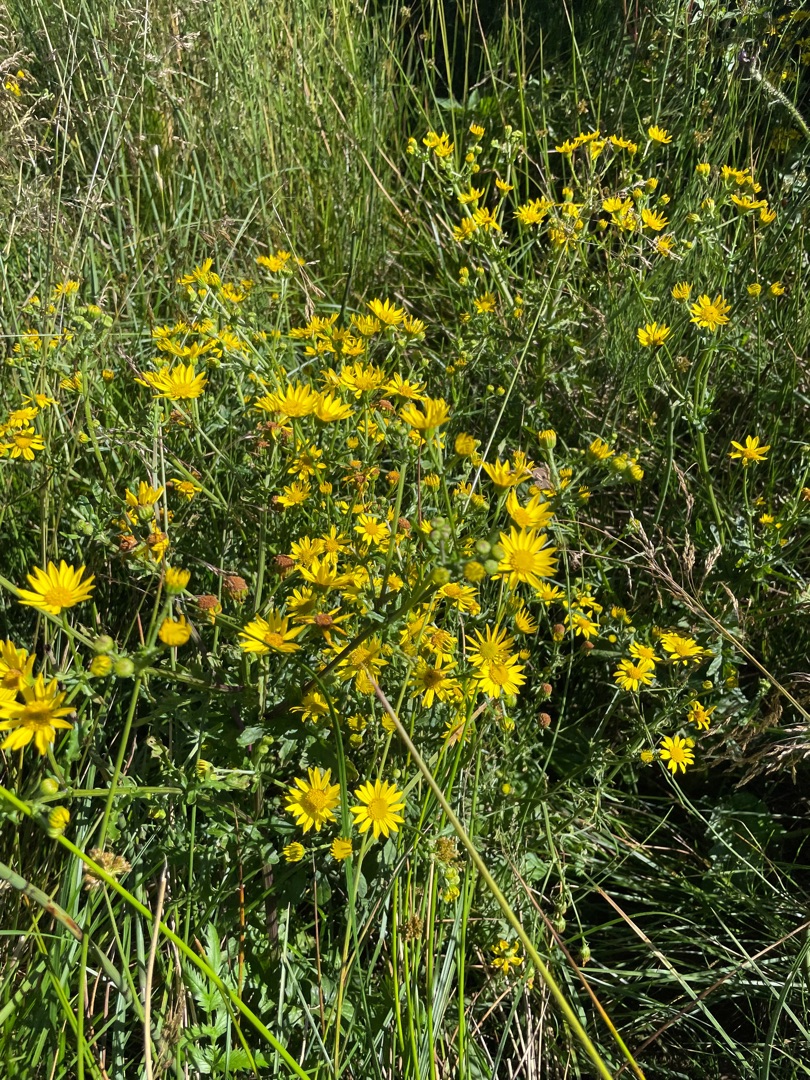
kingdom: Plantae
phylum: Tracheophyta
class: Magnoliopsida
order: Asterales
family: Asteraceae
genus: Jacobaea
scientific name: Jacobaea aquatica
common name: Vand-brandbæger
